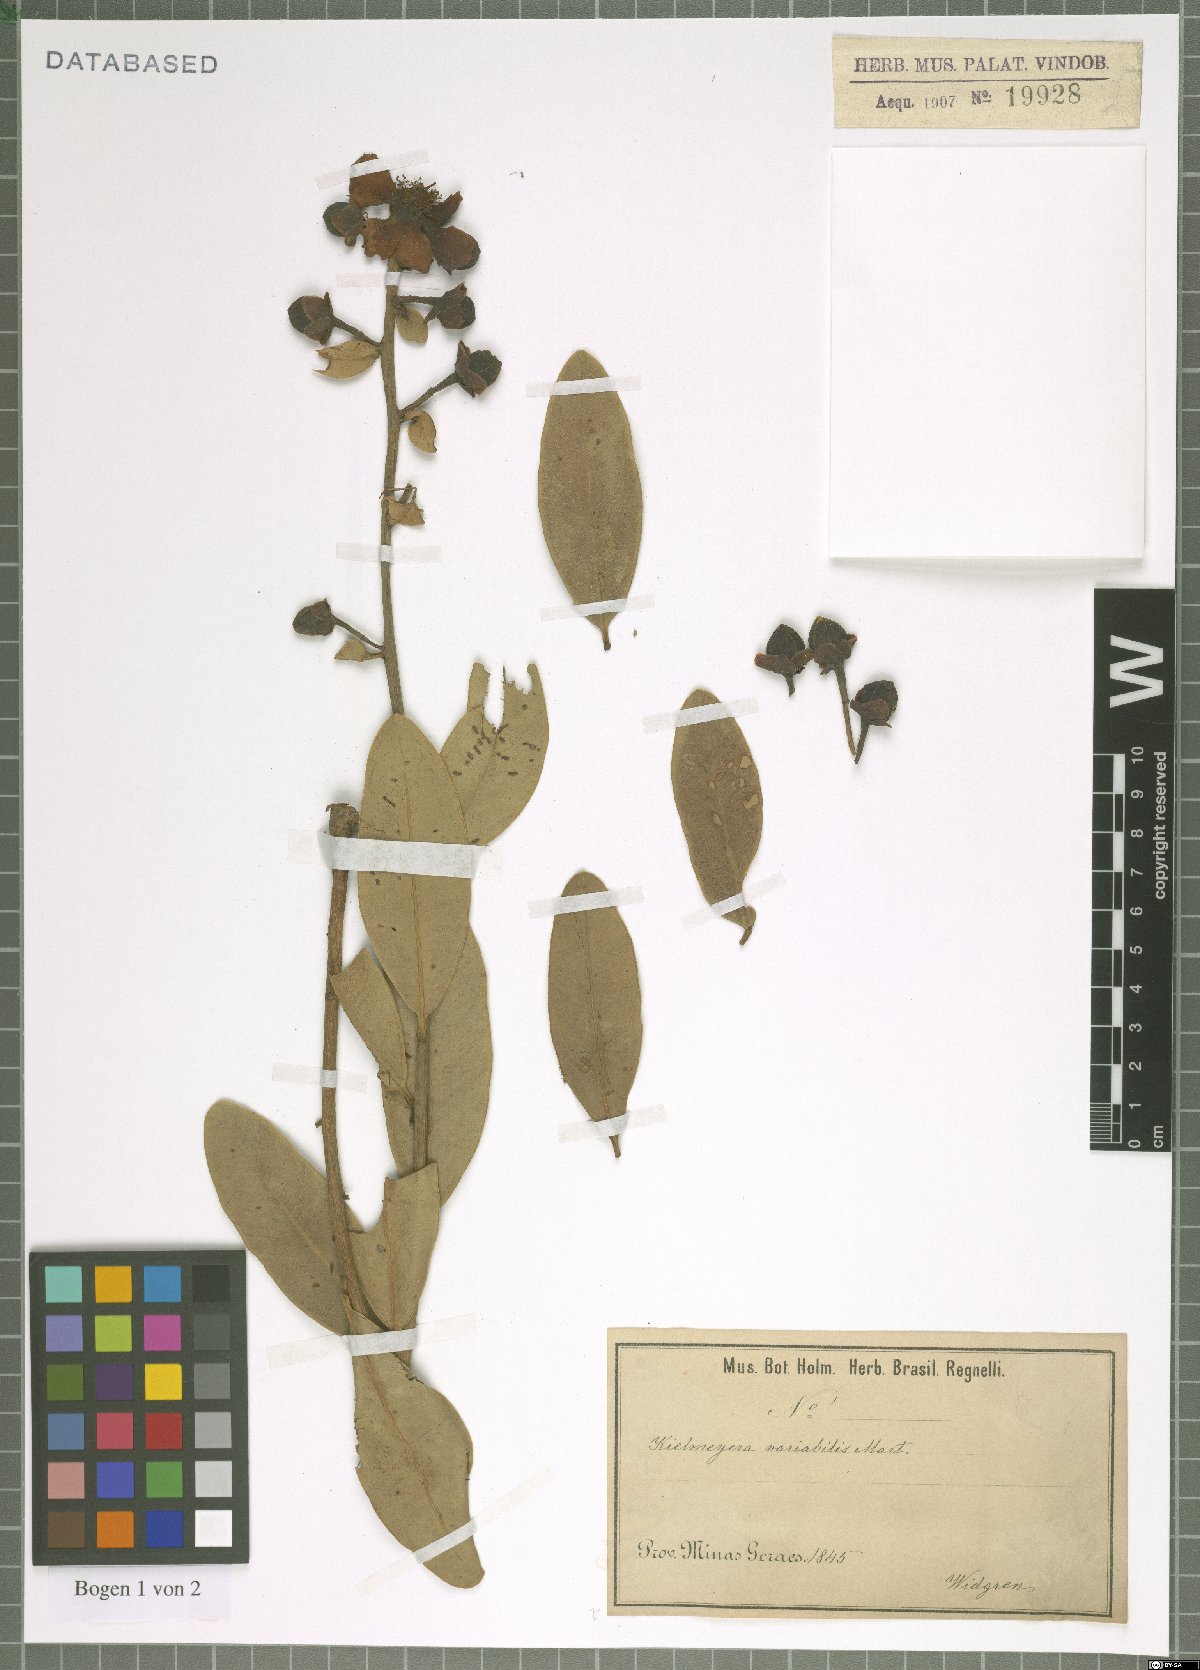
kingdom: Plantae
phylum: Tracheophyta
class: Magnoliopsida
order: Malpighiales
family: Calophyllaceae
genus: Kielmeyera
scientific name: Kielmeyera variabilis
